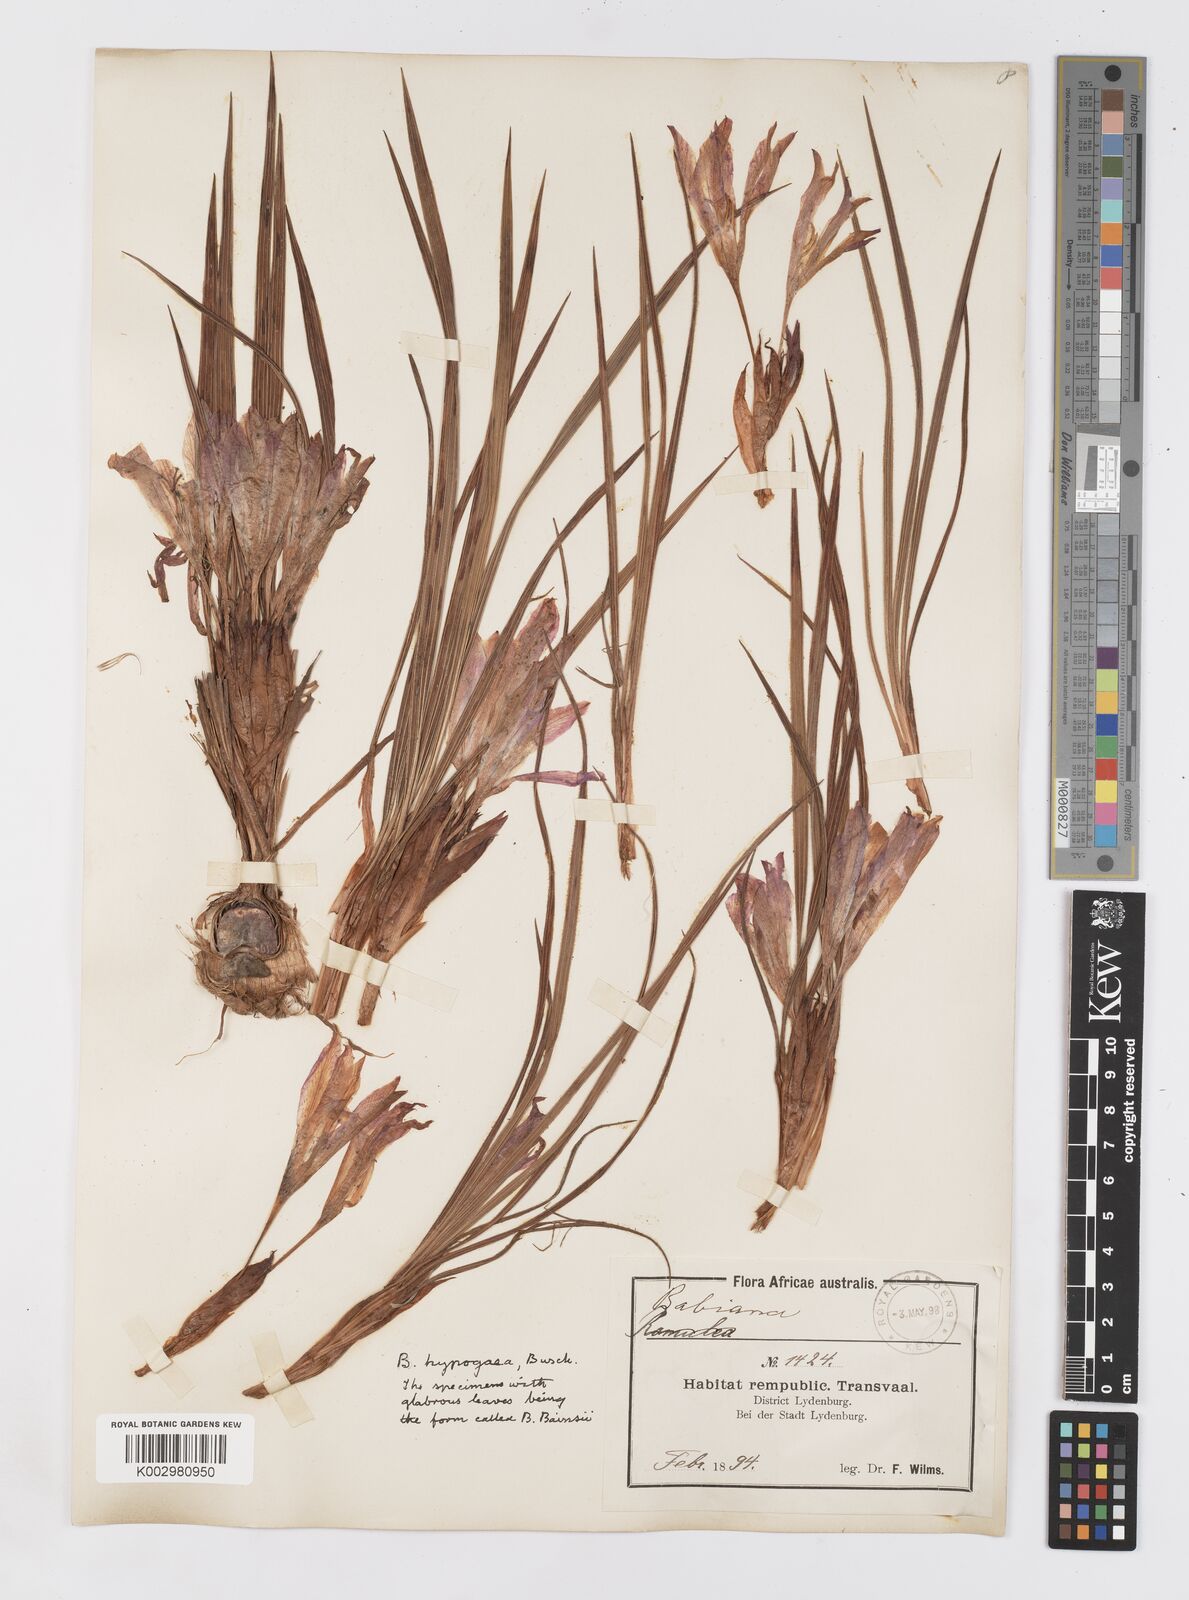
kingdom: Plantae
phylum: Tracheophyta
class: Liliopsida
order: Asparagales
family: Iridaceae
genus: Babiana
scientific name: Babiana bainesii
